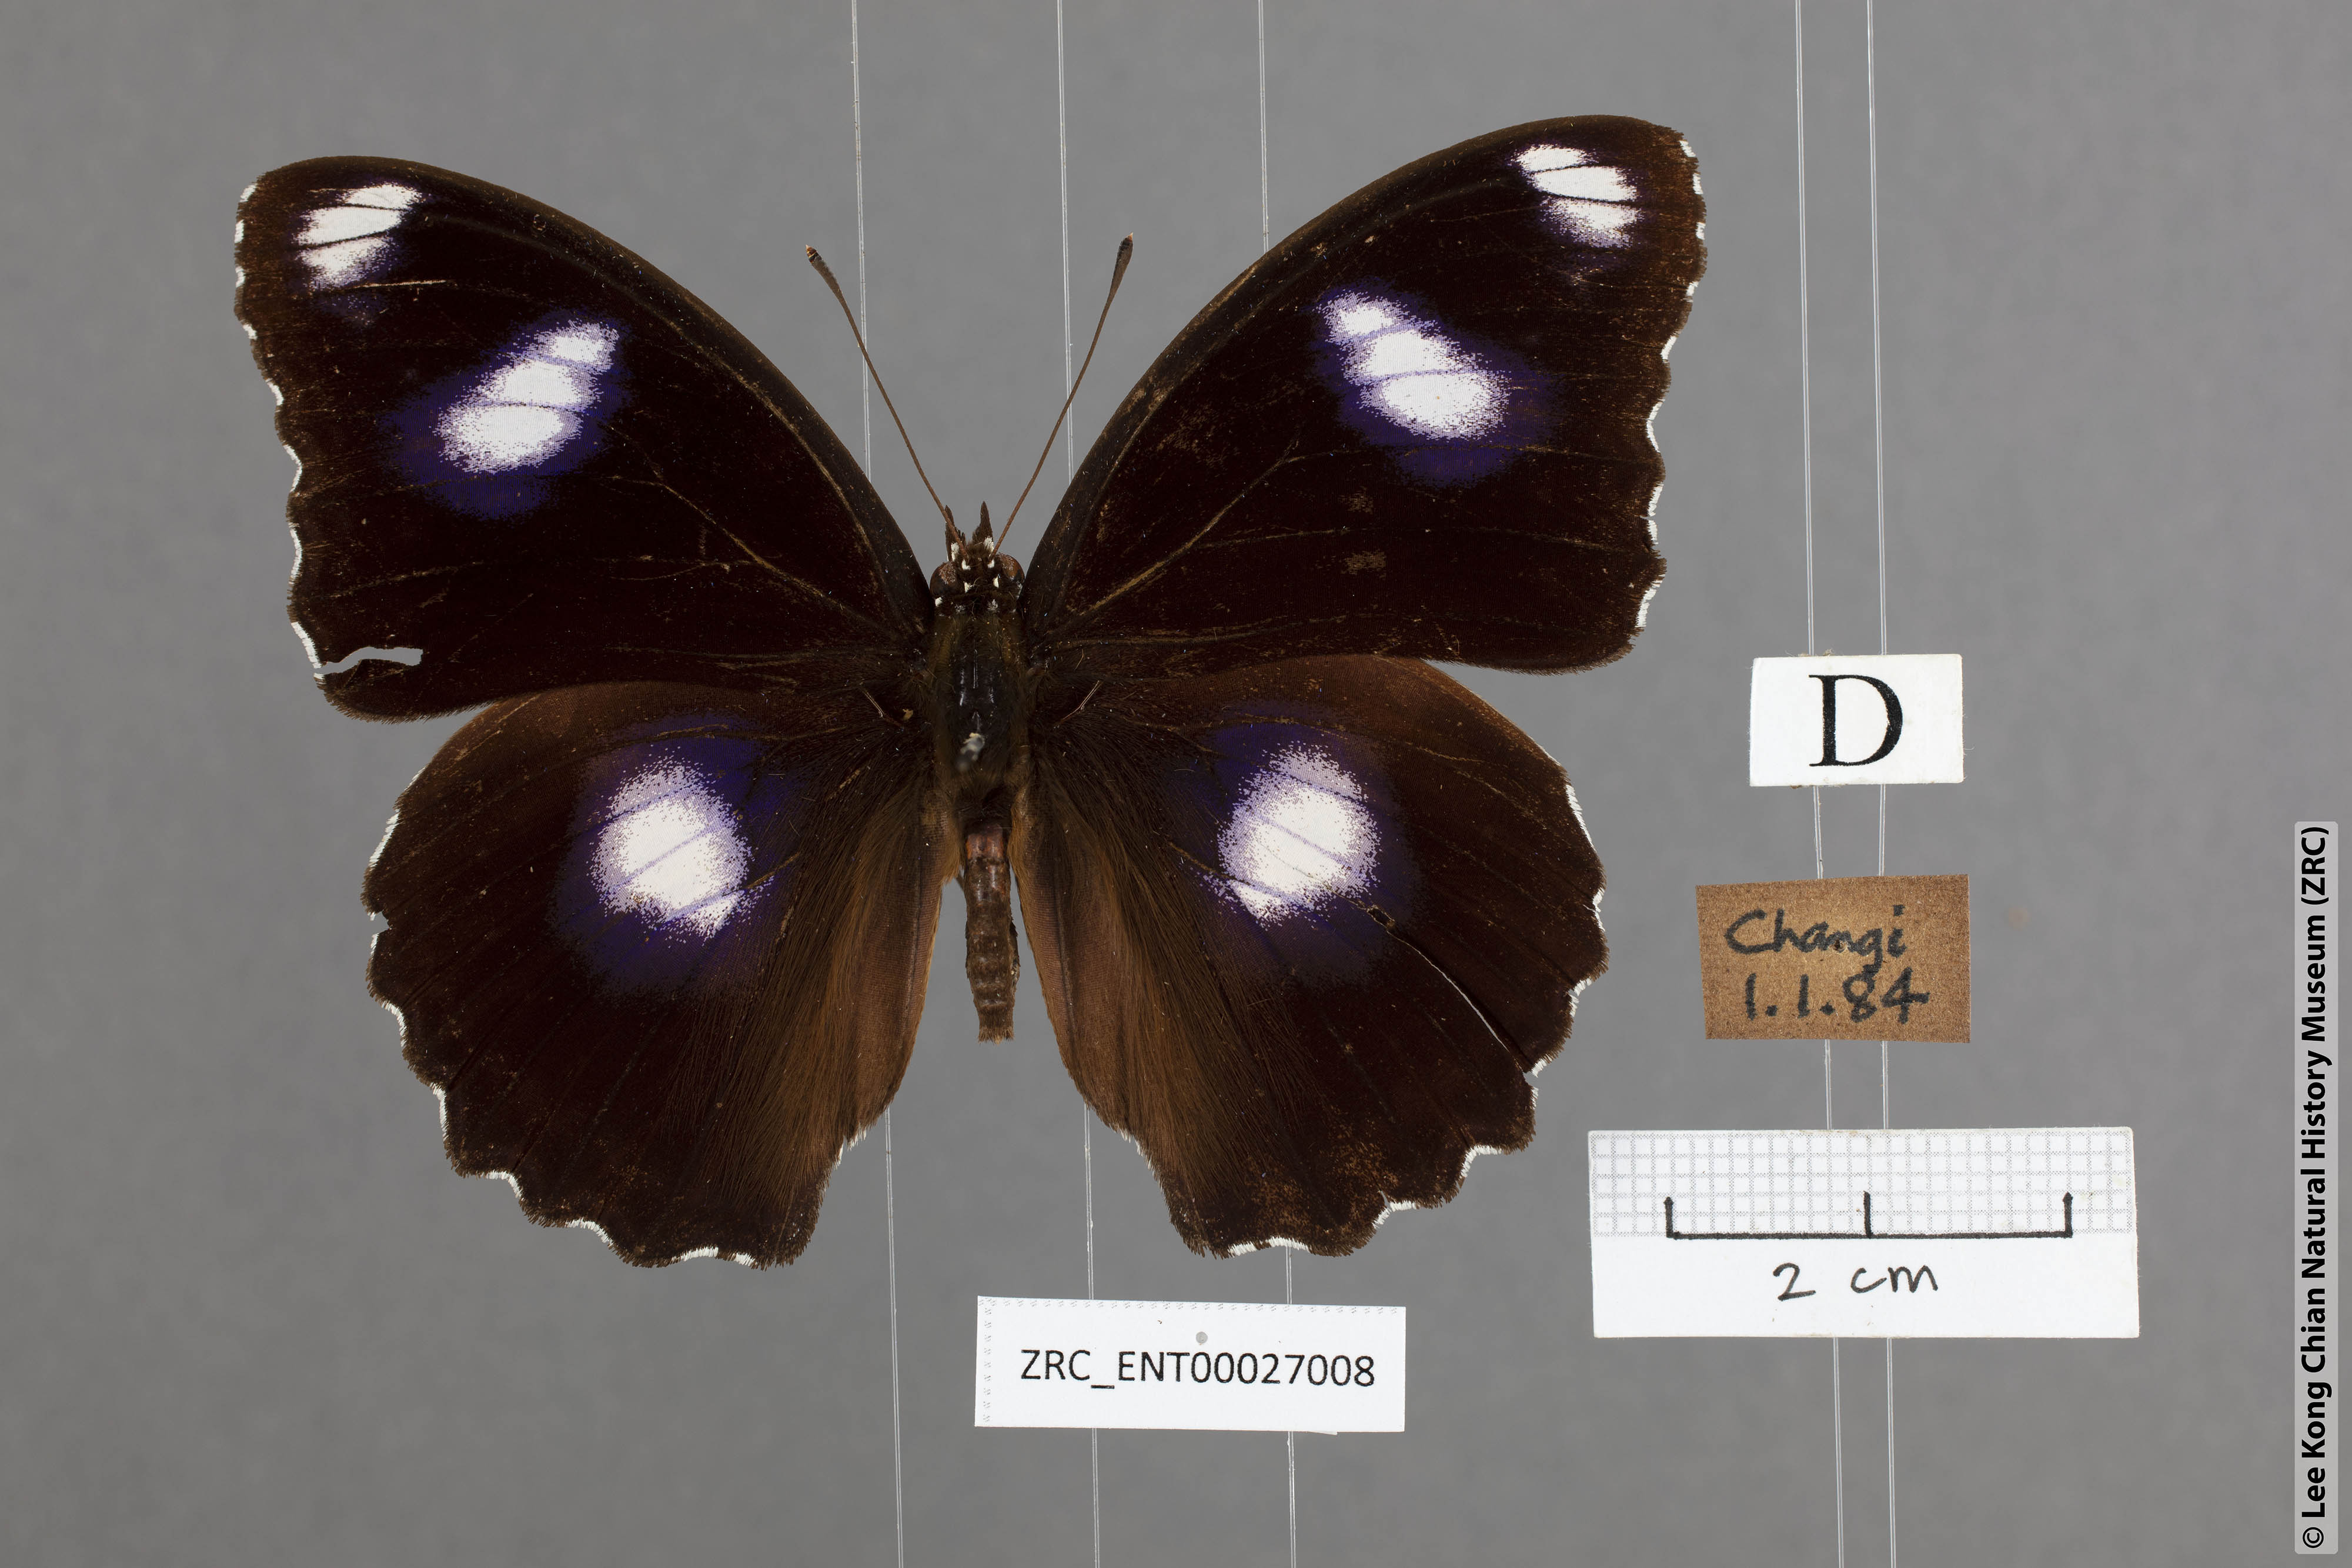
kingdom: Animalia
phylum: Arthropoda
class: Insecta
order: Lepidoptera
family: Nymphalidae
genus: Hypolimnas
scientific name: Hypolimnas bolina
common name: Great eggfly
